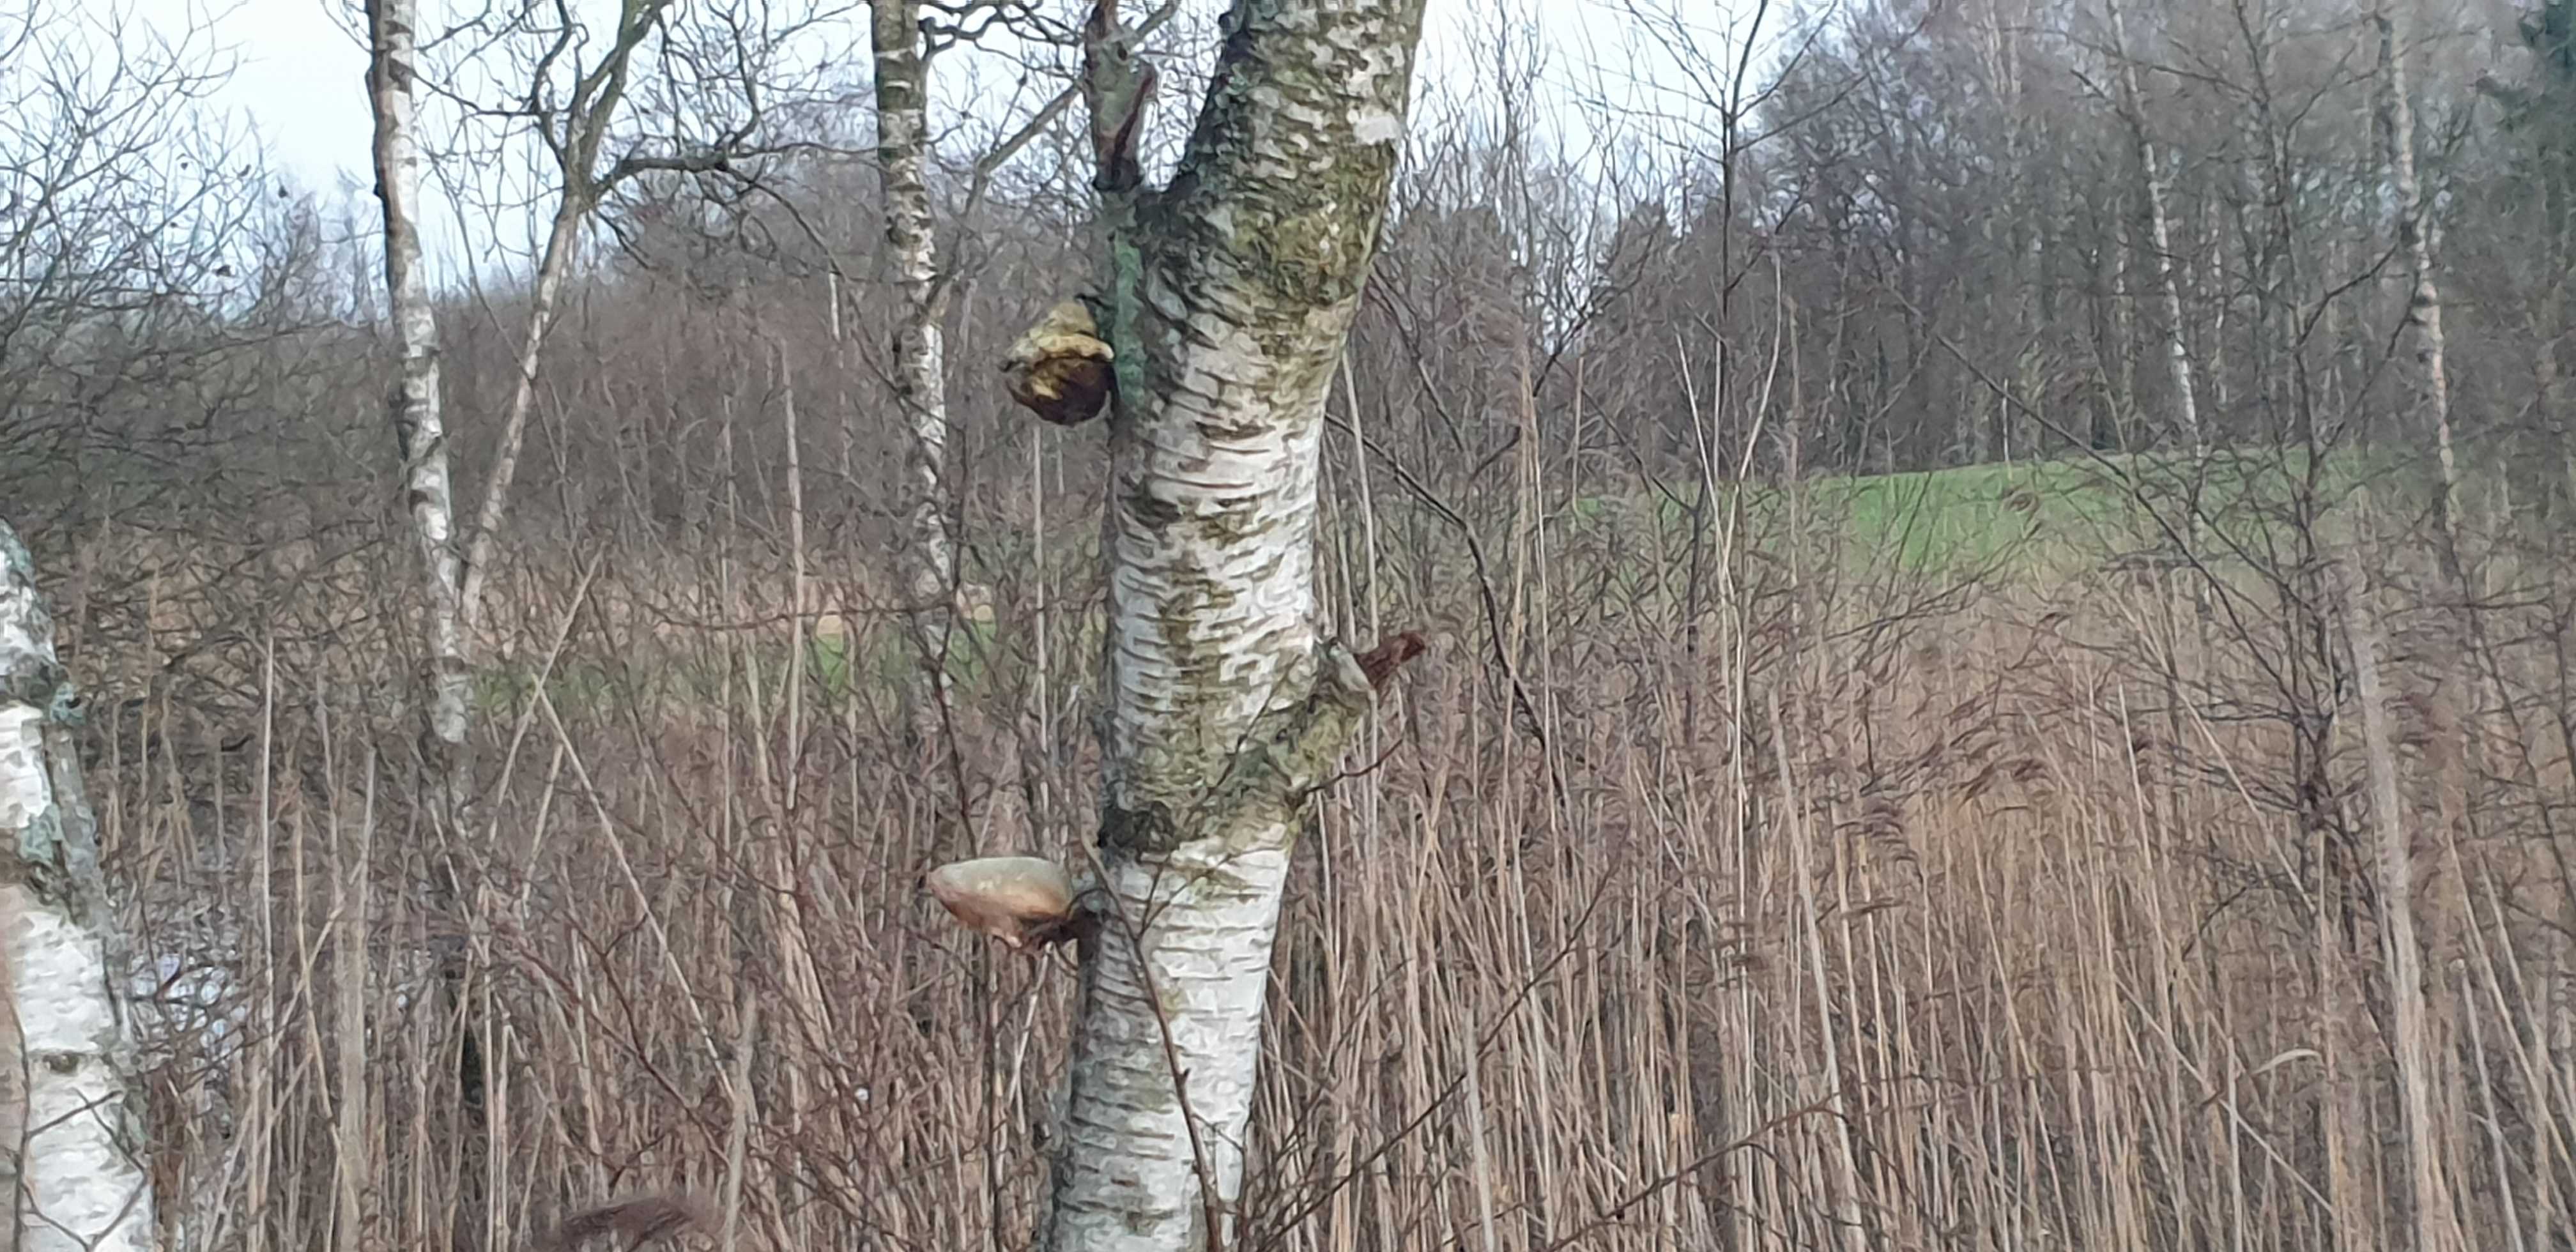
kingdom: Fungi
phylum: Basidiomycota
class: Agaricomycetes
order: Polyporales
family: Fomitopsidaceae
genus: Fomitopsis
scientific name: Fomitopsis betulina
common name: birkeporesvamp
